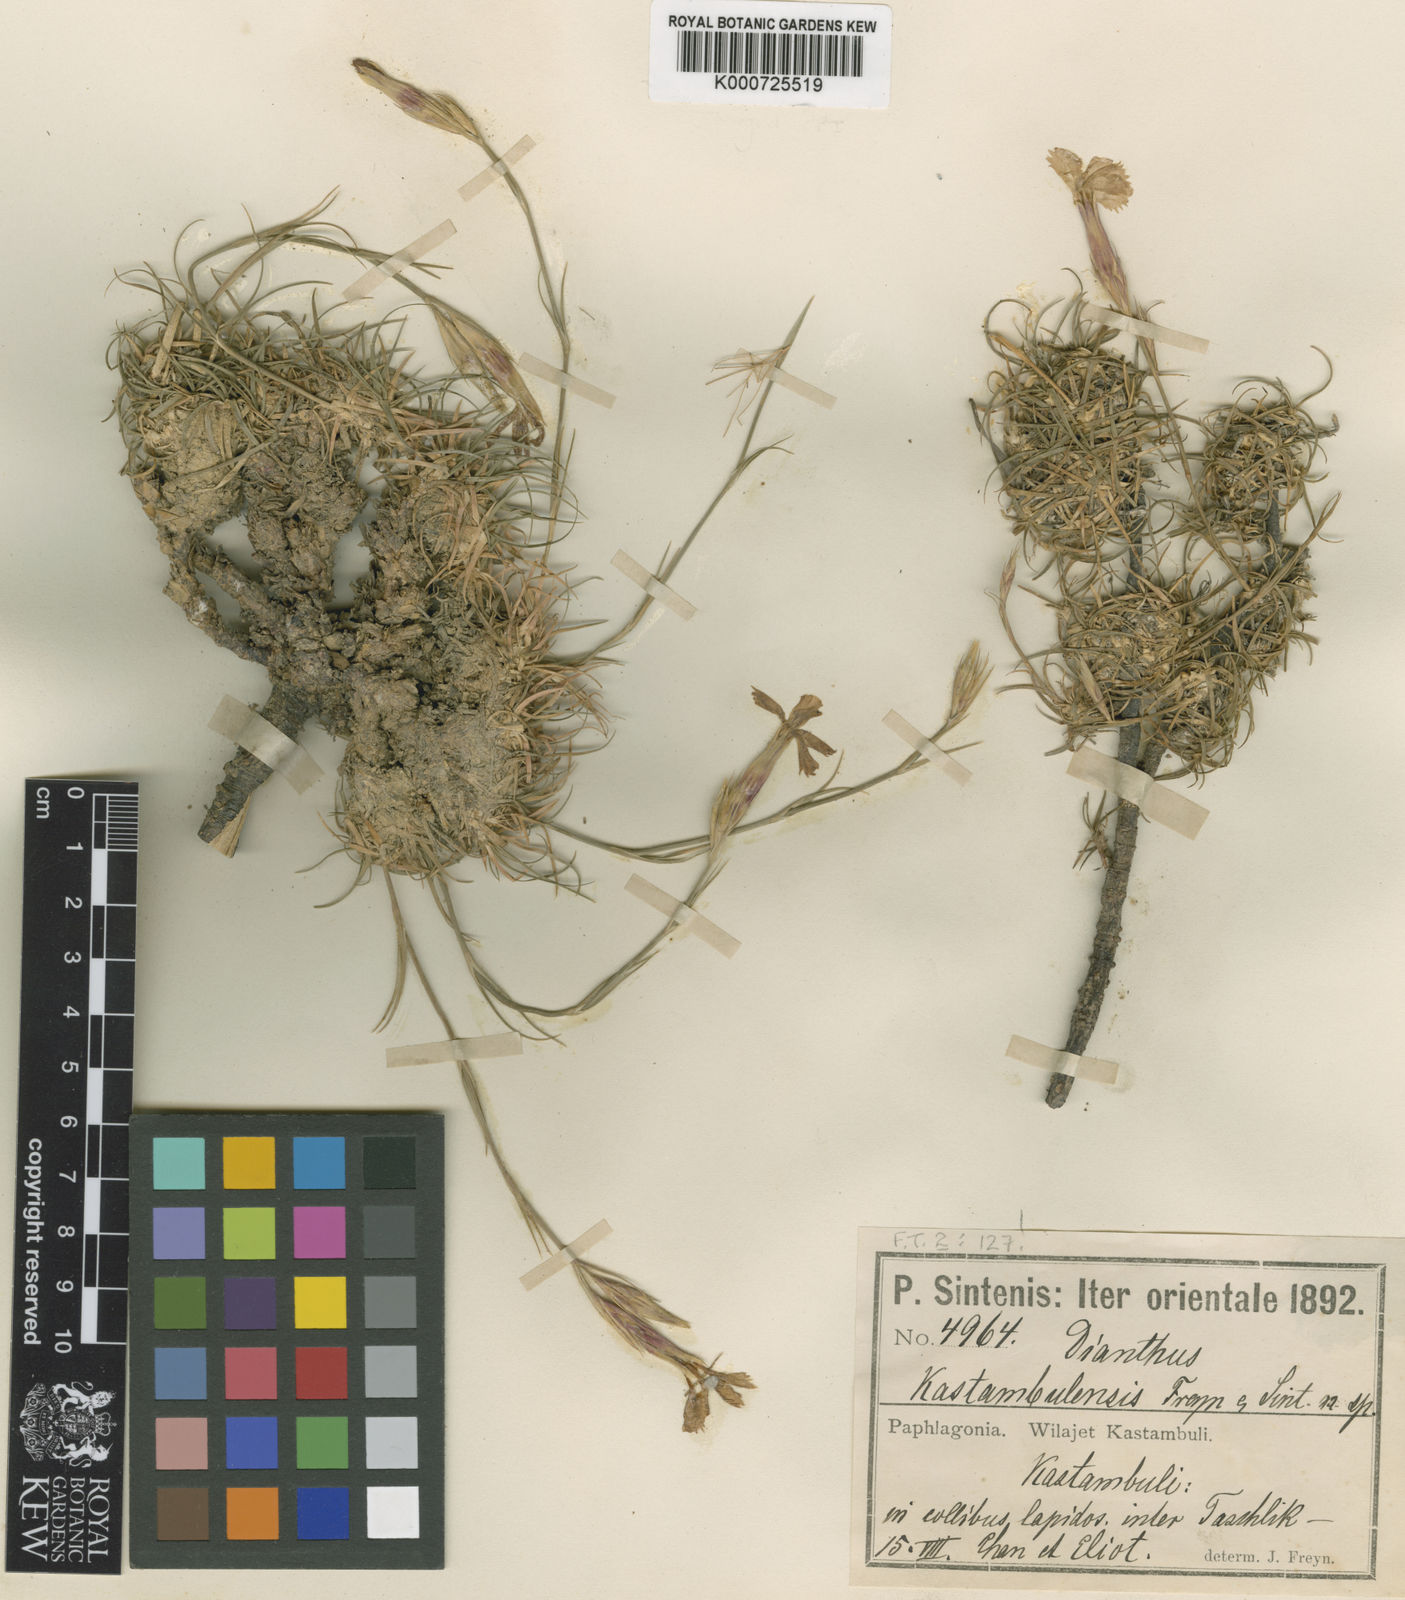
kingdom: Plantae
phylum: Tracheophyta
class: Magnoliopsida
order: Caryophyllales
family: Caryophyllaceae
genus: Dianthus
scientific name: Dianthus kastembeluensis
